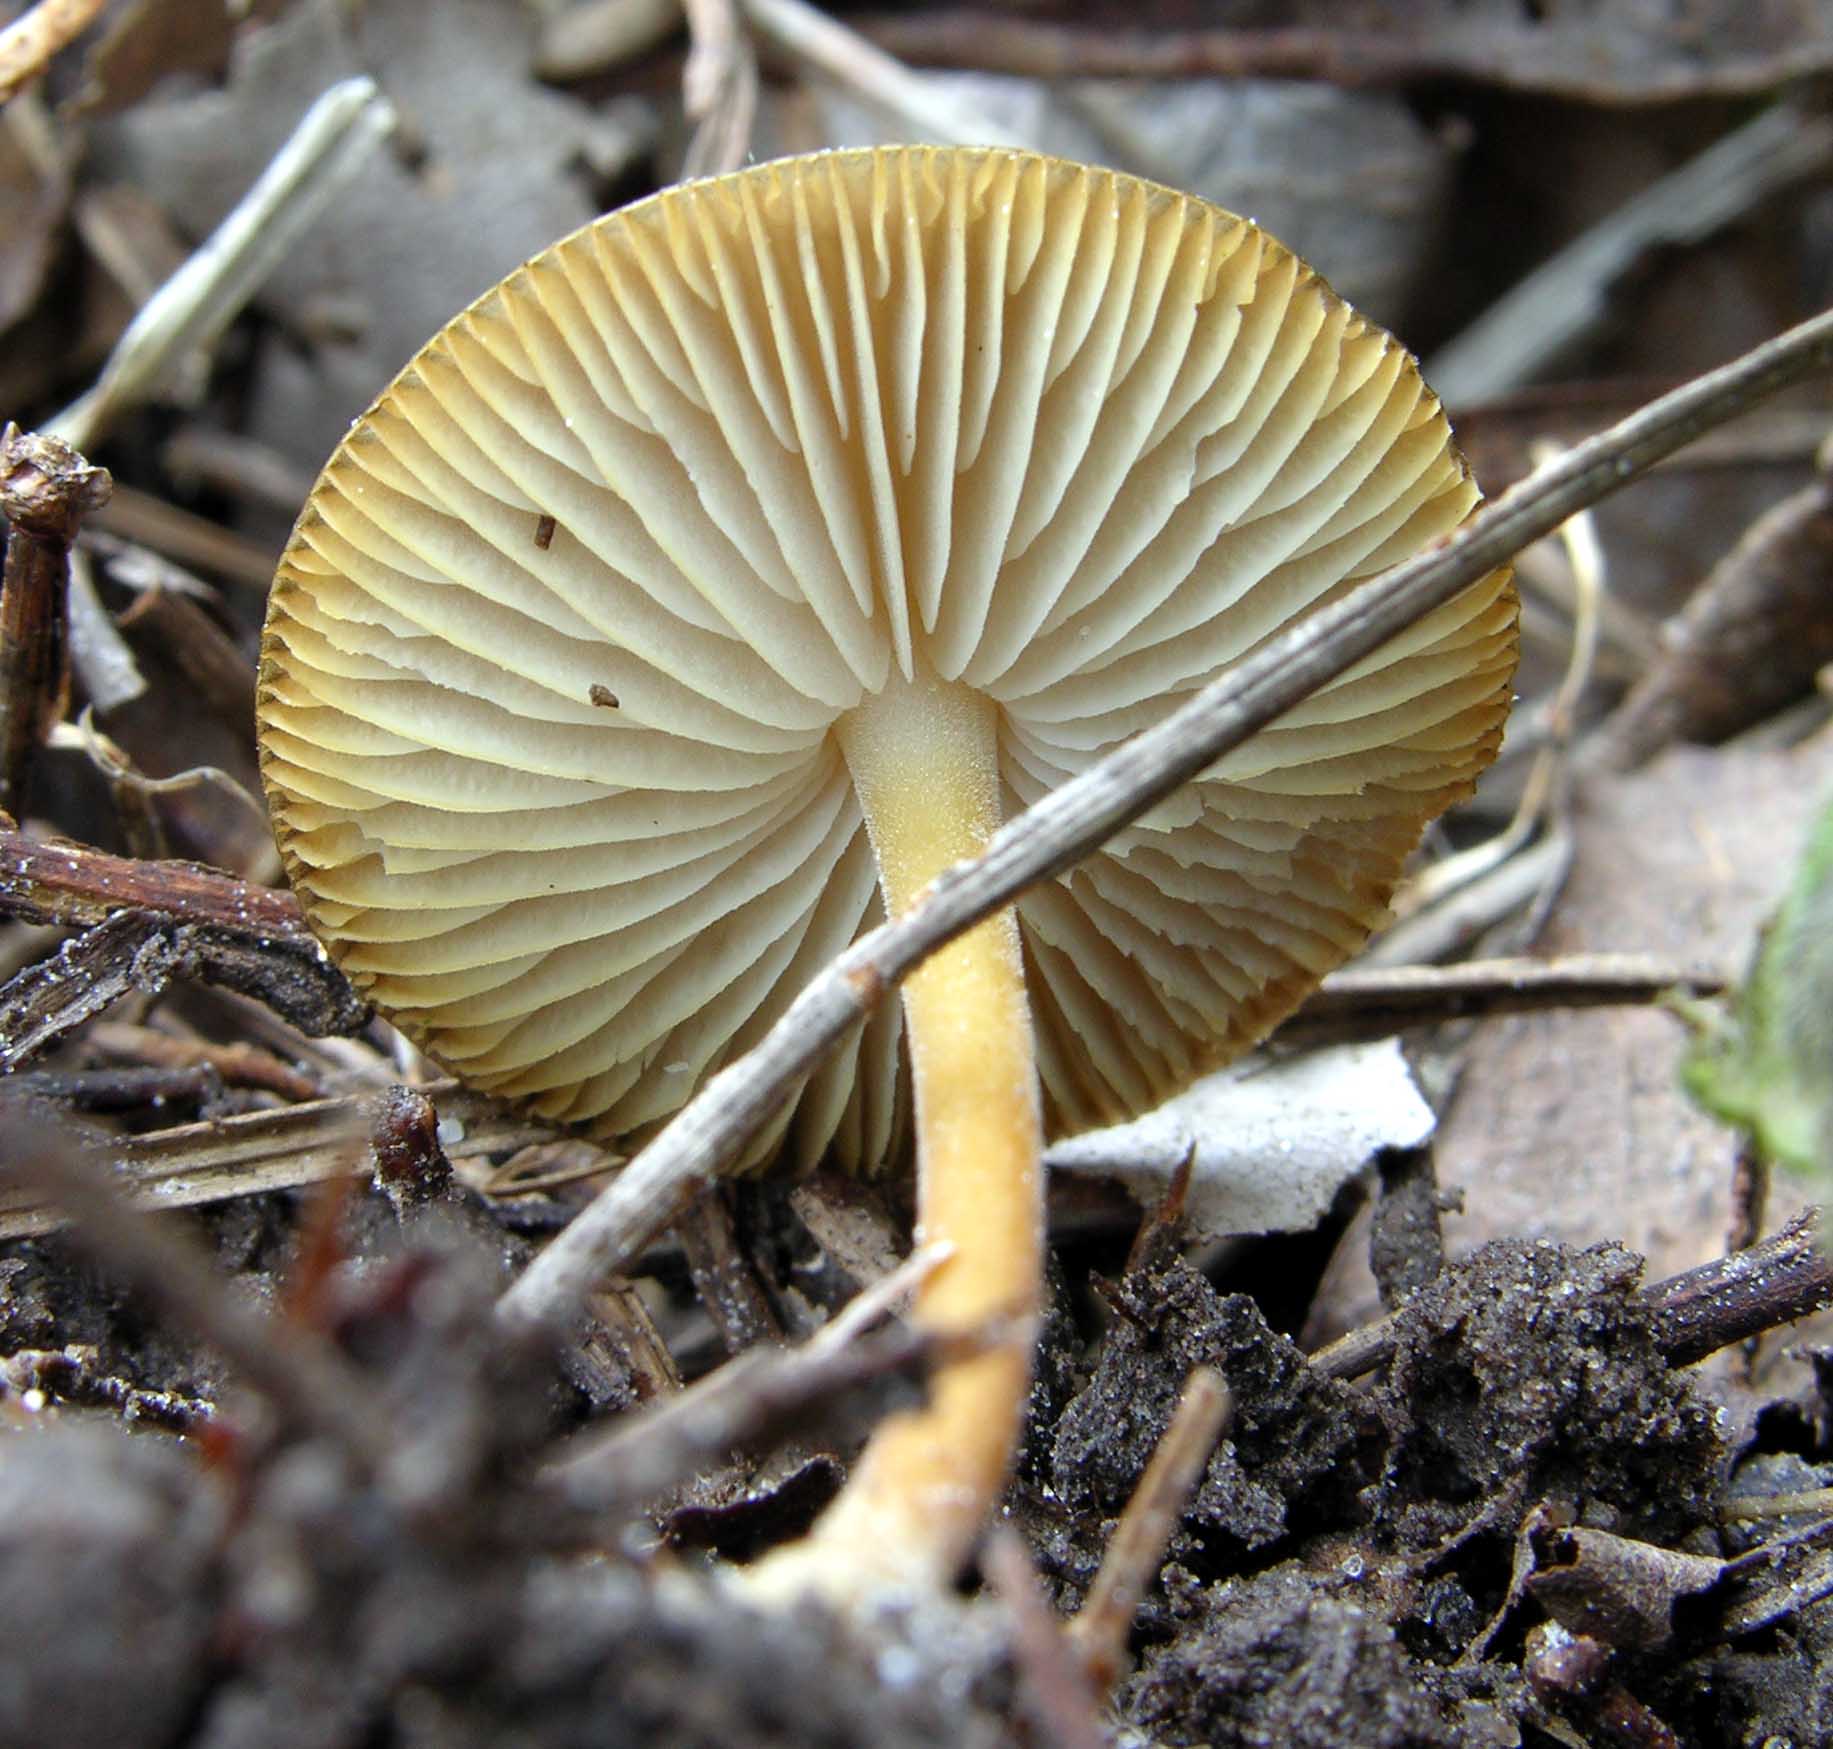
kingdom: Fungi
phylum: Basidiomycota
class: Agaricomycetes
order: Agaricales
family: Omphalotaceae
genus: Gymnopus
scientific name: Gymnopus ocior
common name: mørk fladhat
